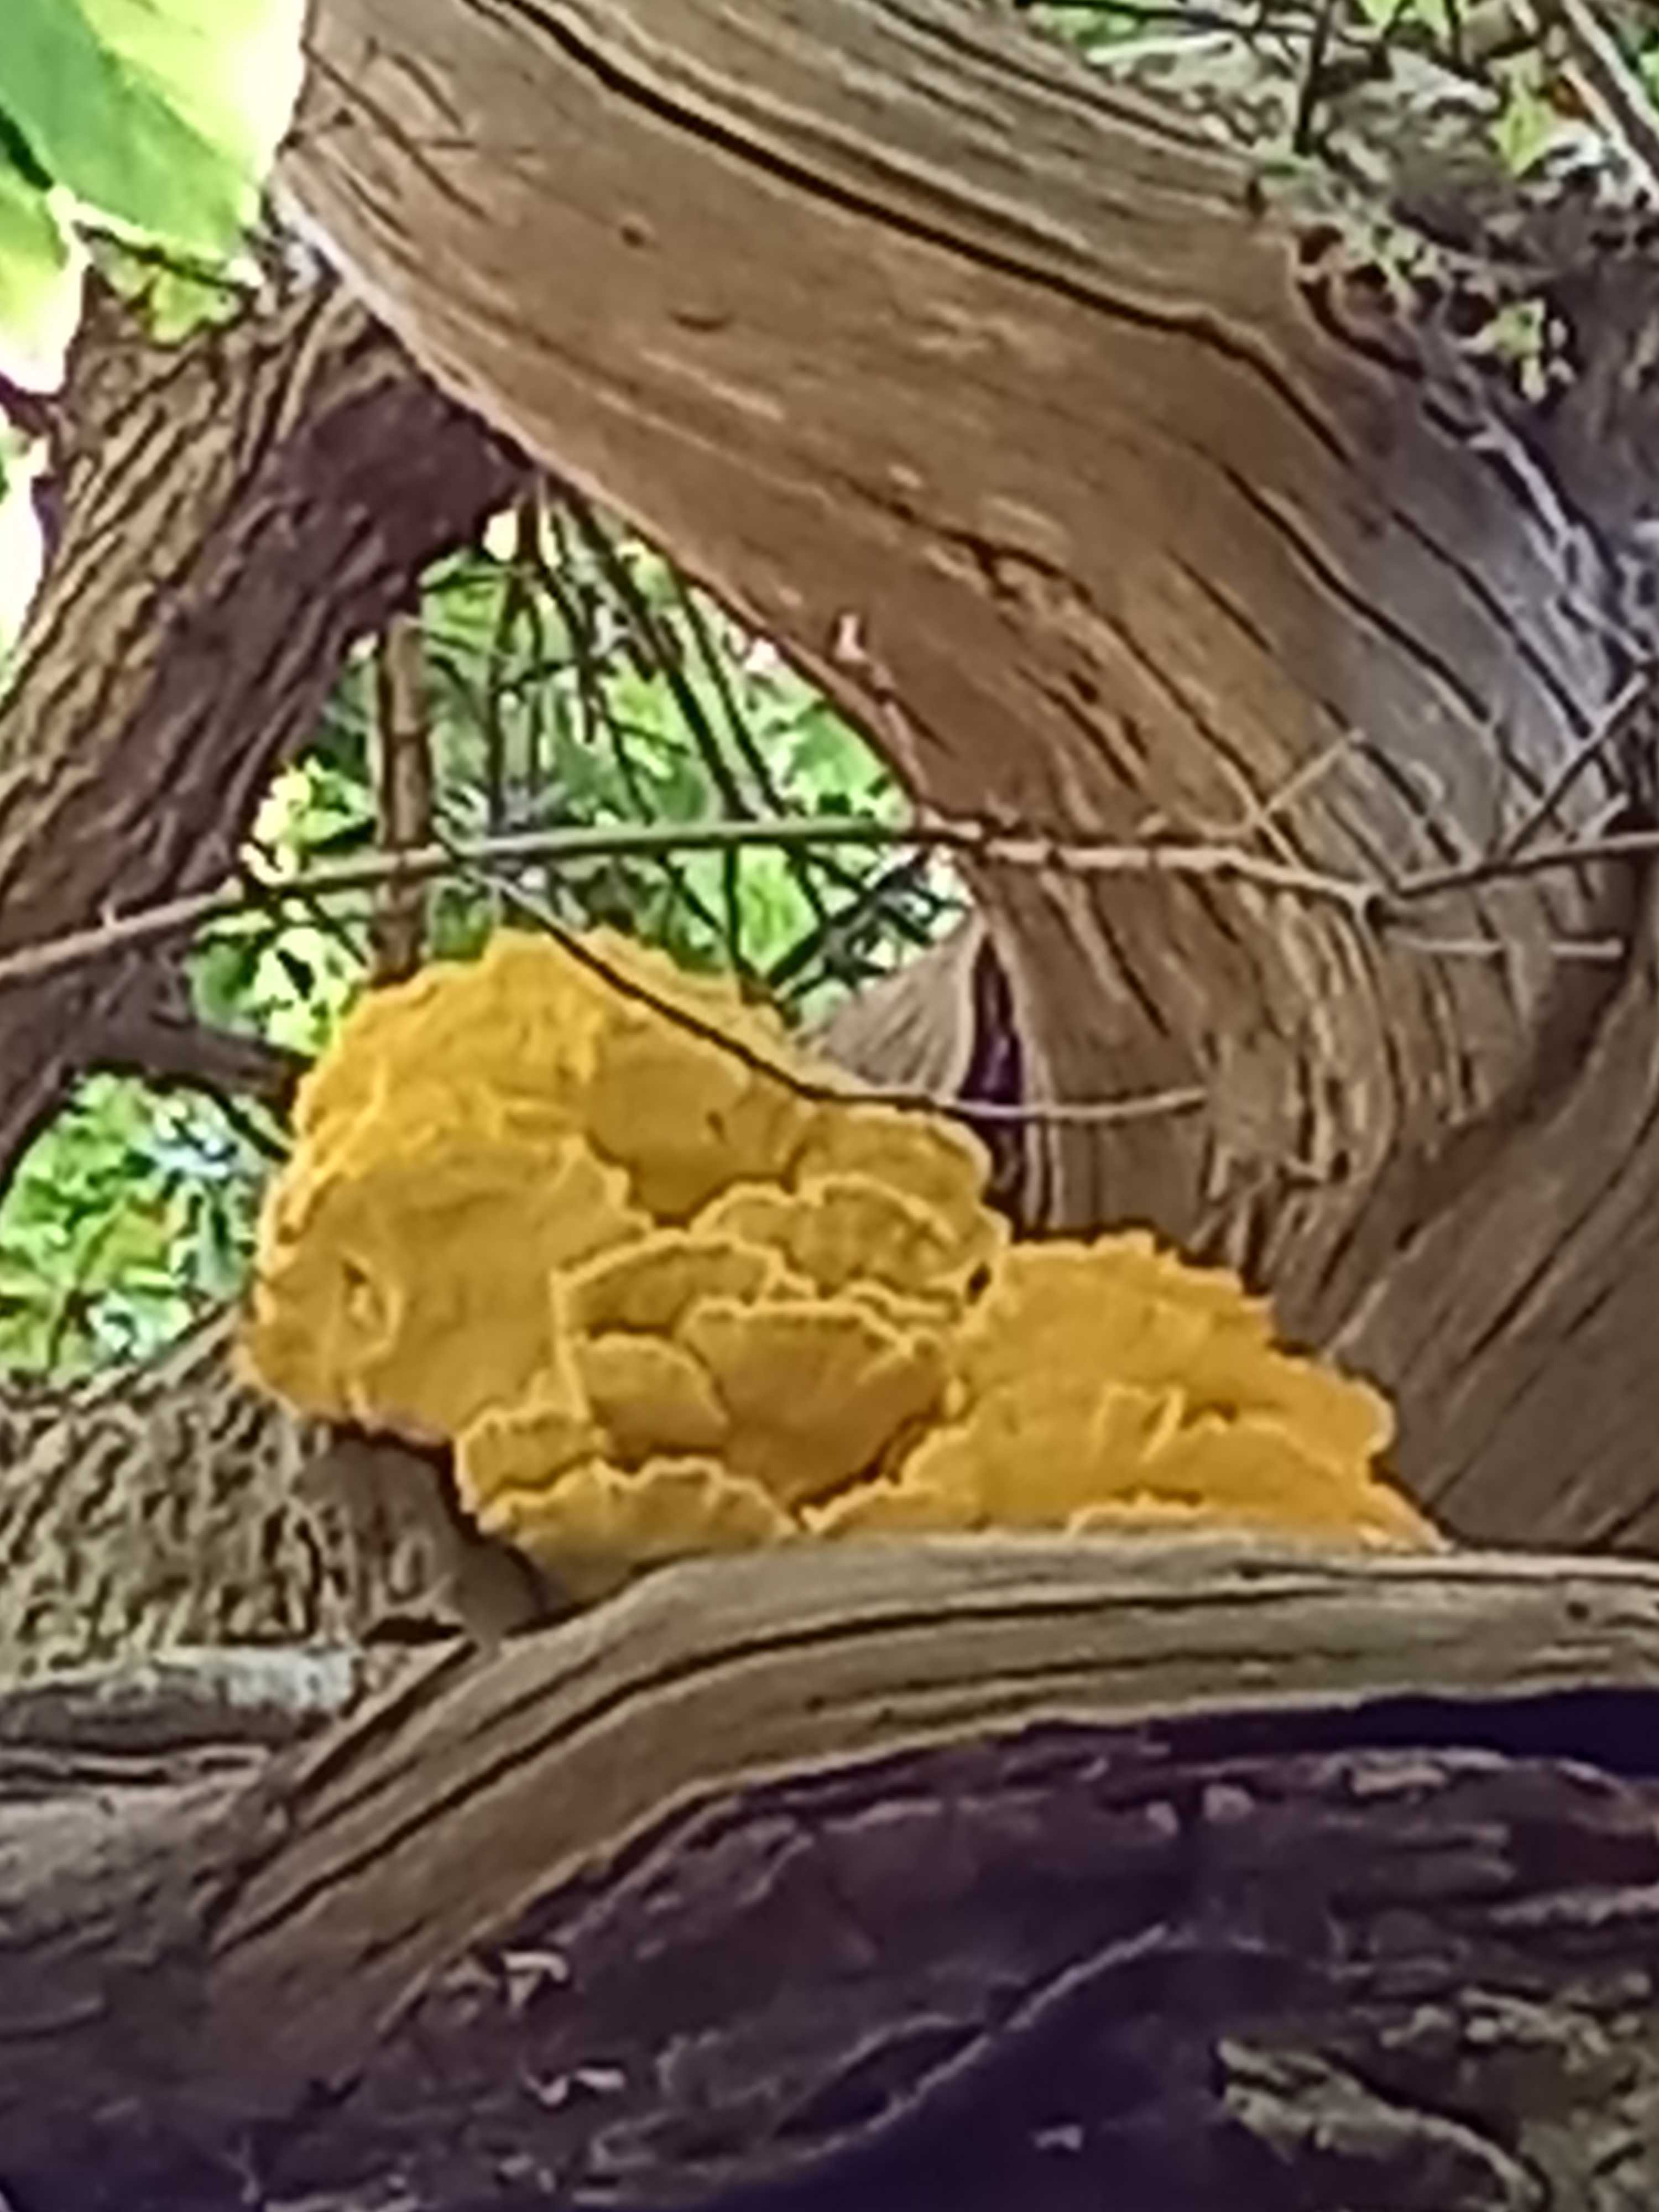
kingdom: Fungi
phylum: Basidiomycota
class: Agaricomycetes
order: Polyporales
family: Laetiporaceae
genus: Laetiporus
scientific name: Laetiporus sulphureus
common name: svovlporesvamp
